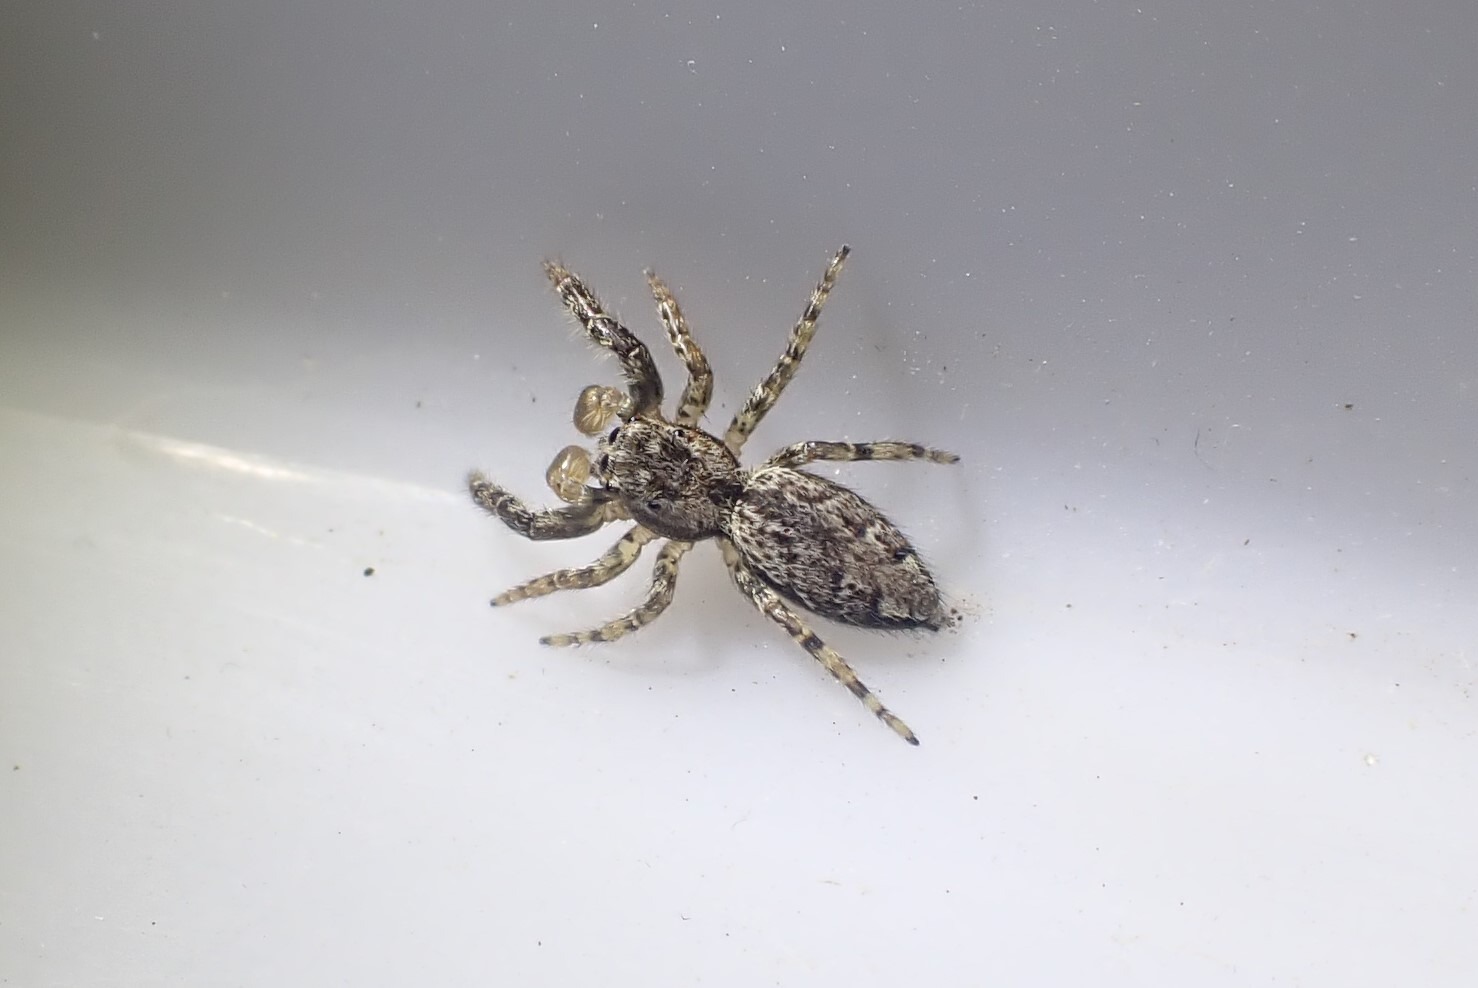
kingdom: Animalia
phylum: Arthropoda
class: Arachnida
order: Araneae
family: Salticidae
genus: Marpissa
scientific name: Marpissa muscosa
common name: Stor springedderkop
